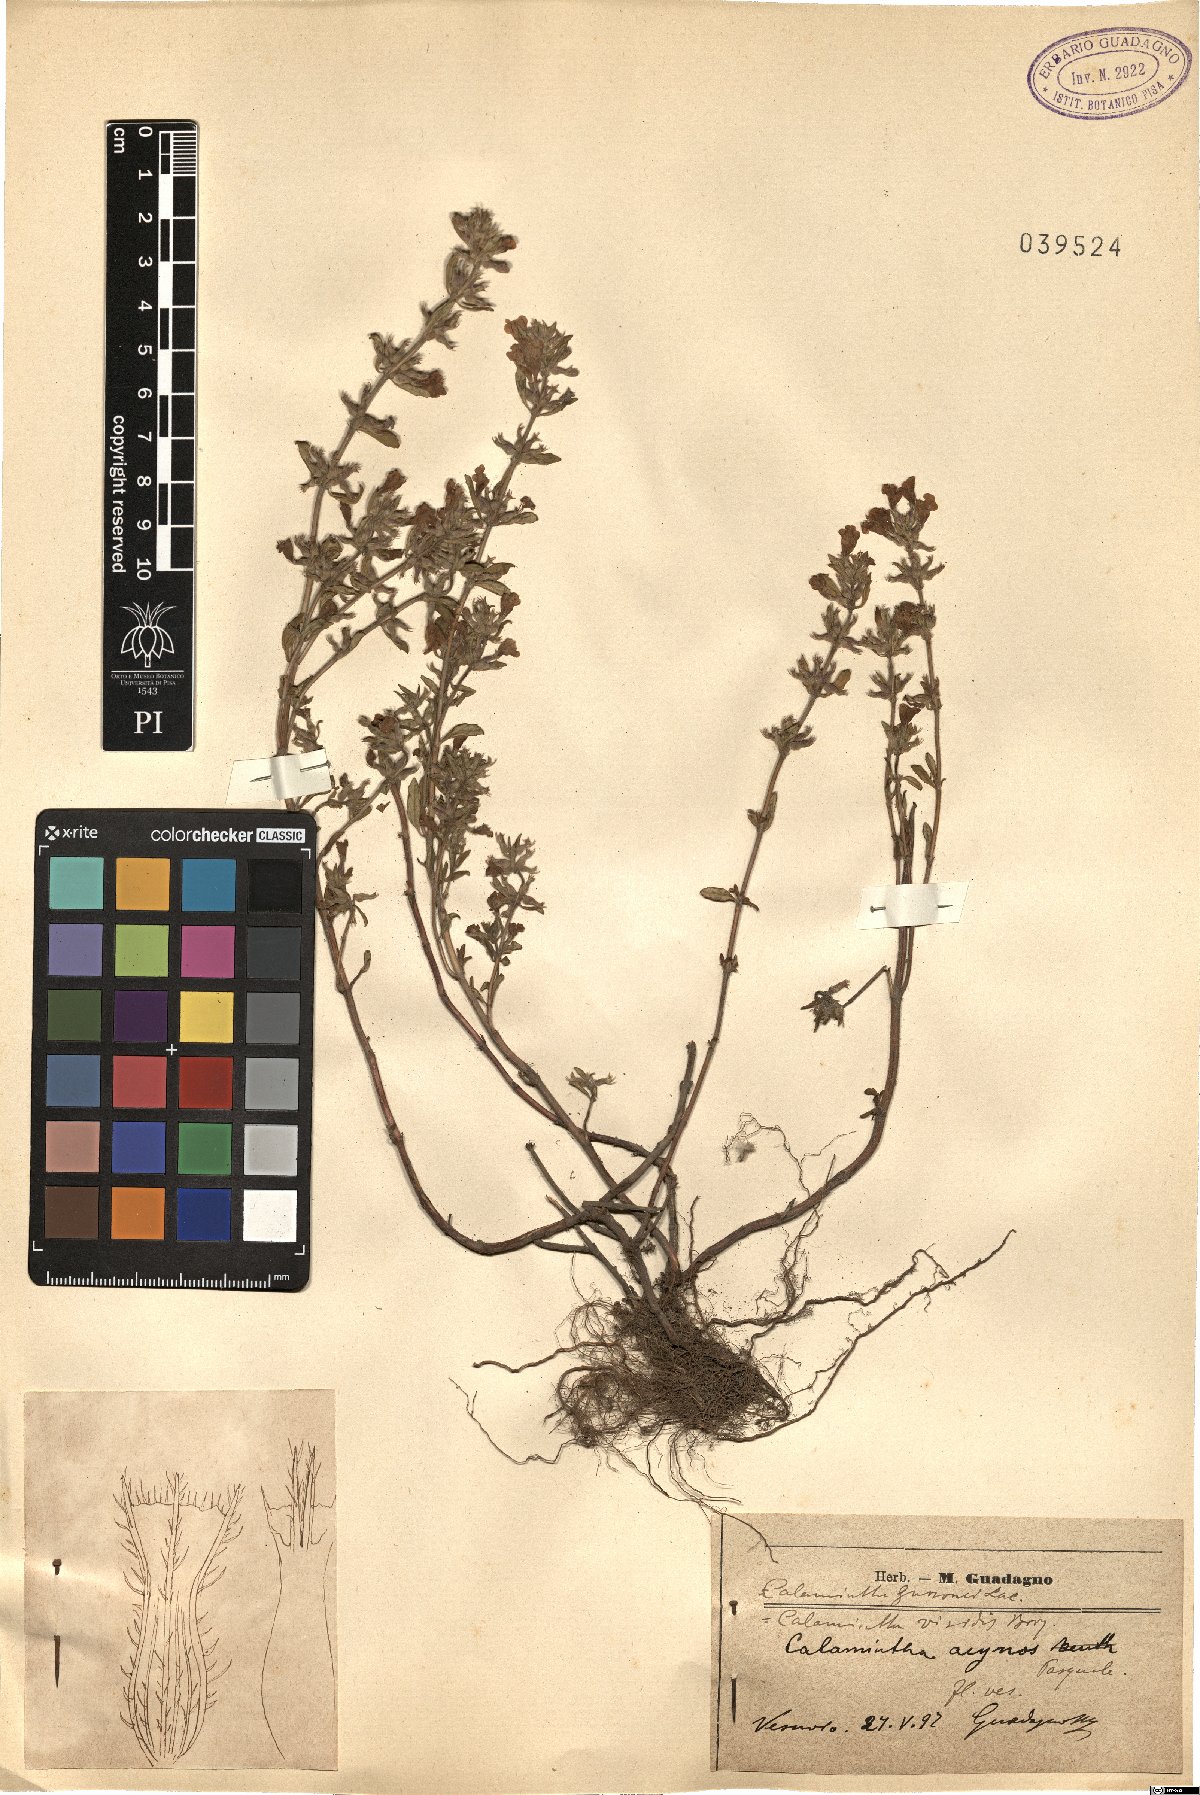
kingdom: Plantae
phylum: Tracheophyta
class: Magnoliopsida
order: Lamiales
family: Lamiaceae
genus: Clinopodium
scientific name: Clinopodium acinos
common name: Basil thyme
